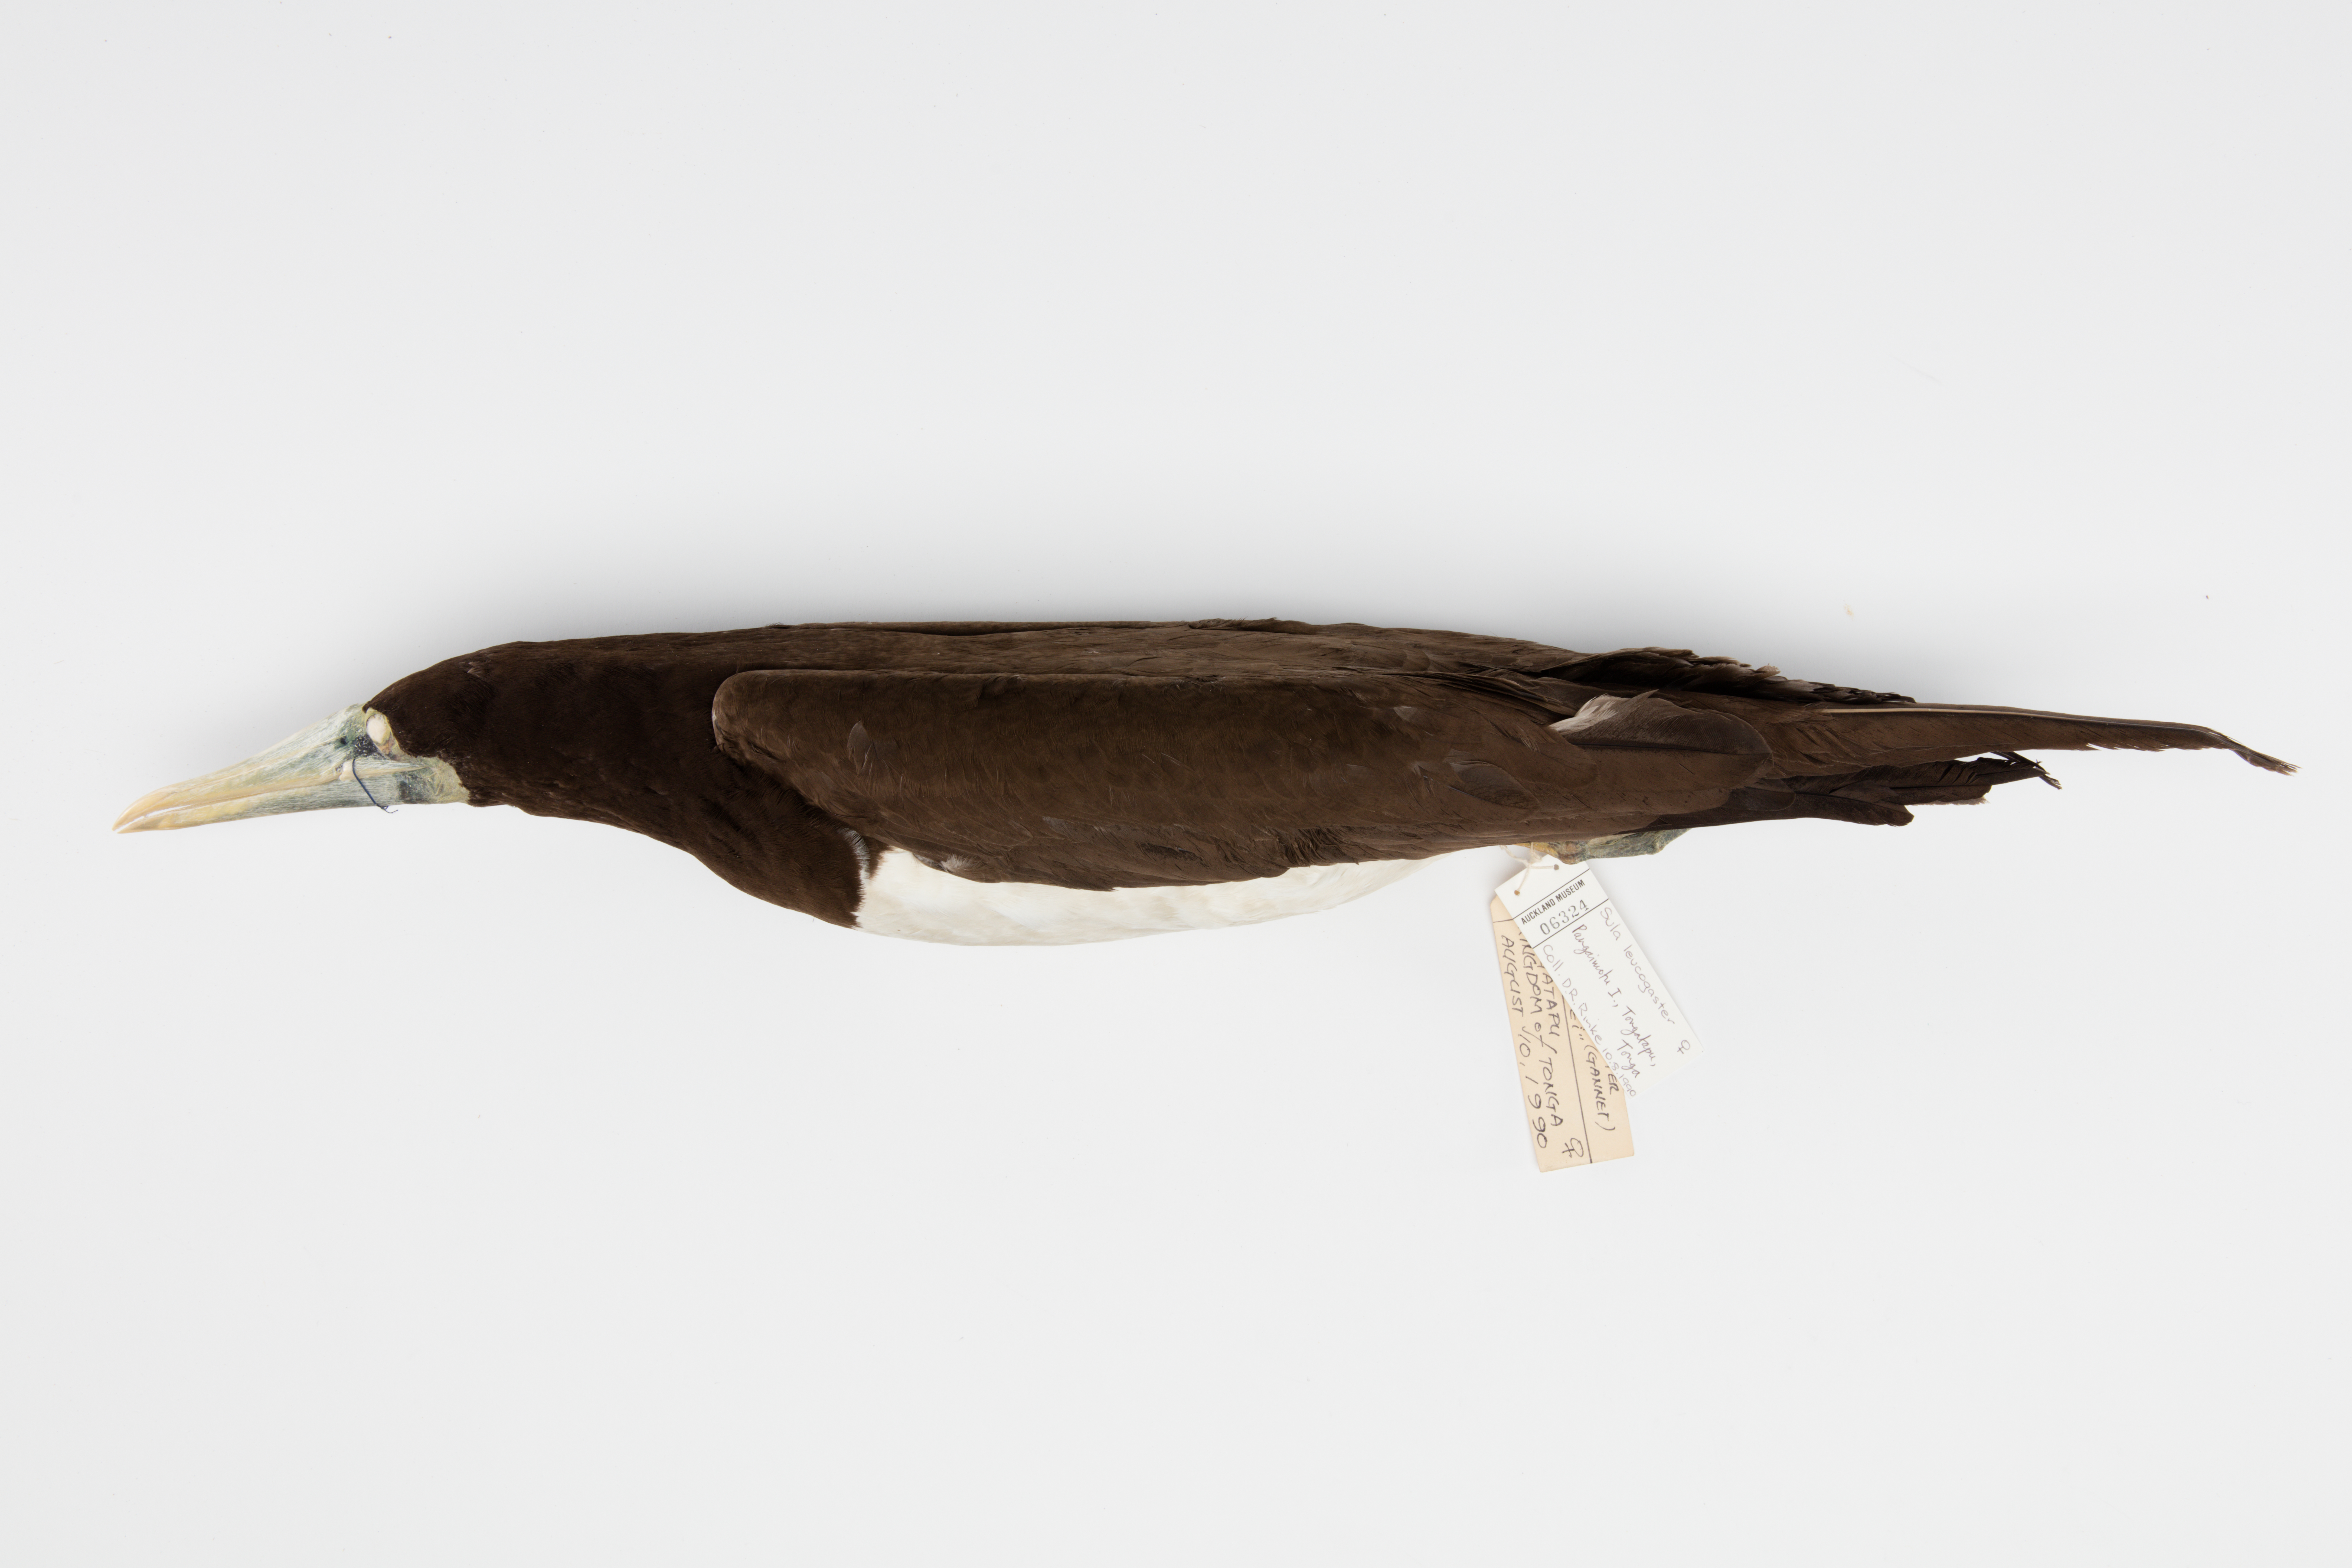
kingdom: Animalia
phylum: Chordata
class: Aves
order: Suliformes
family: Sulidae
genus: Sula
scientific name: Sula leucogaster
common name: Brown booby
